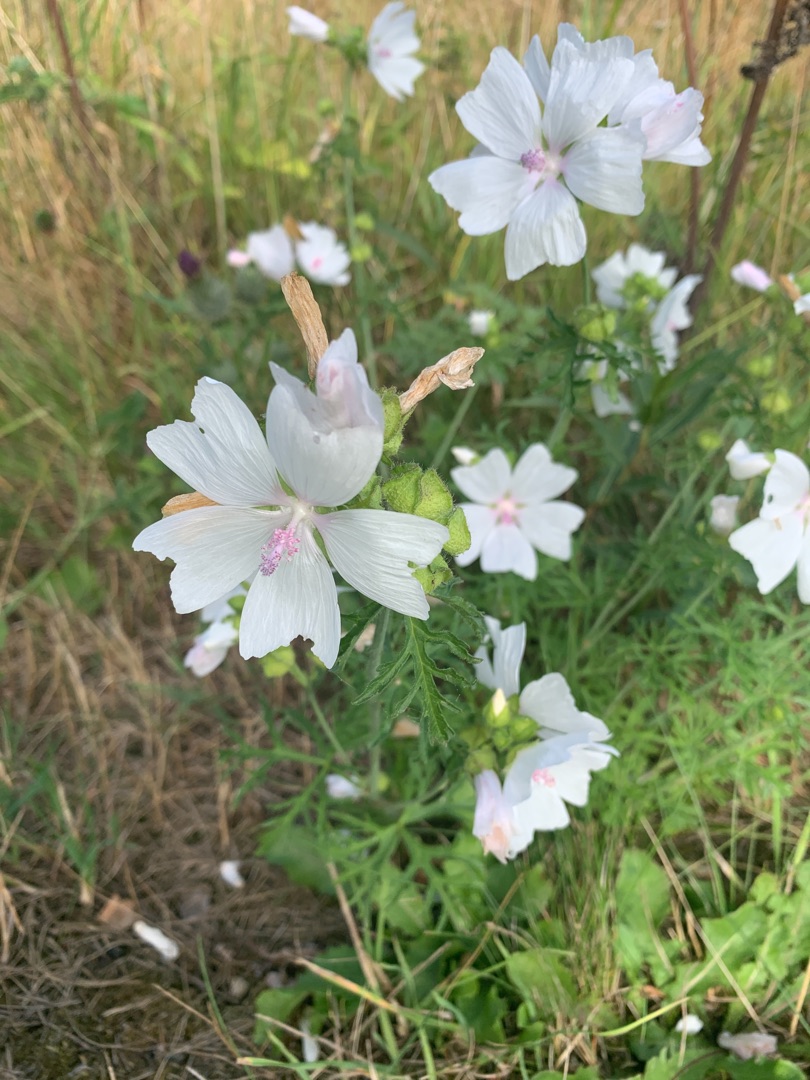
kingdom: Plantae
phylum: Tracheophyta
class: Magnoliopsida
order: Malvales
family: Malvaceae
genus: Malva
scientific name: Malva
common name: Katostslægten
